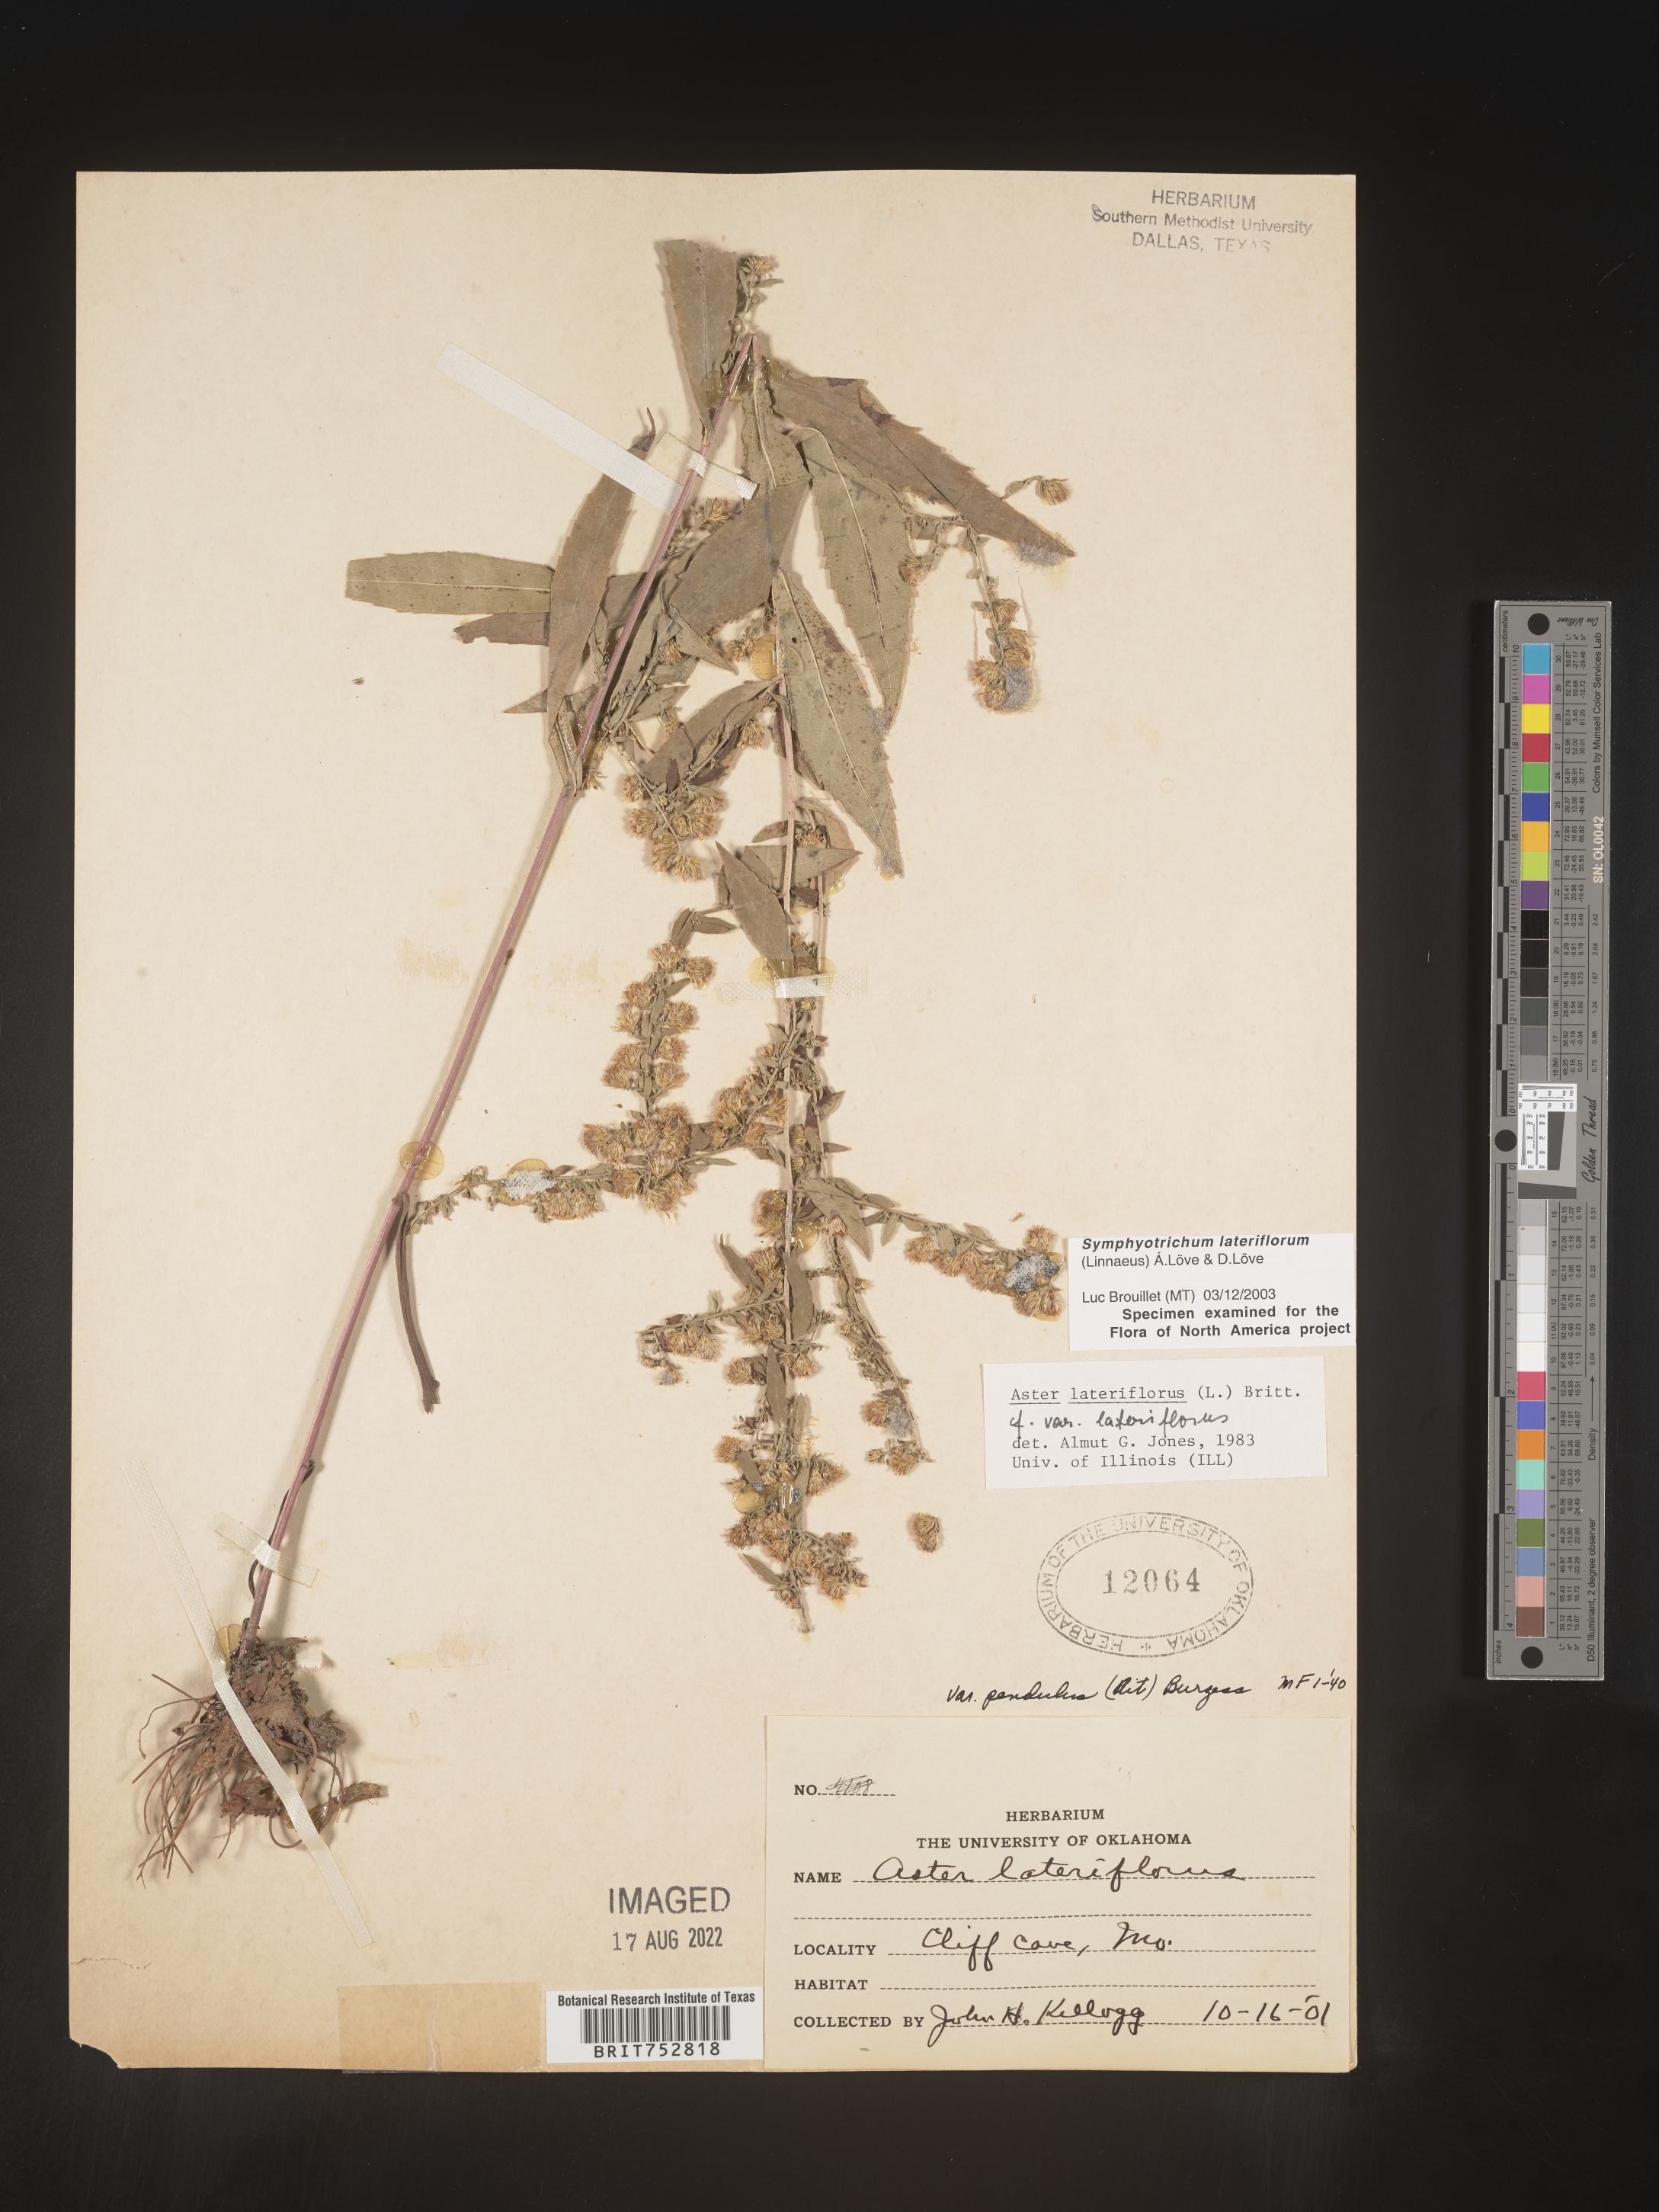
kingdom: Plantae
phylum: Tracheophyta
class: Magnoliopsida
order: Asterales
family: Asteraceae
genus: Symphyotrichum
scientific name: Symphyotrichum lateriflorum
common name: Calico aster
